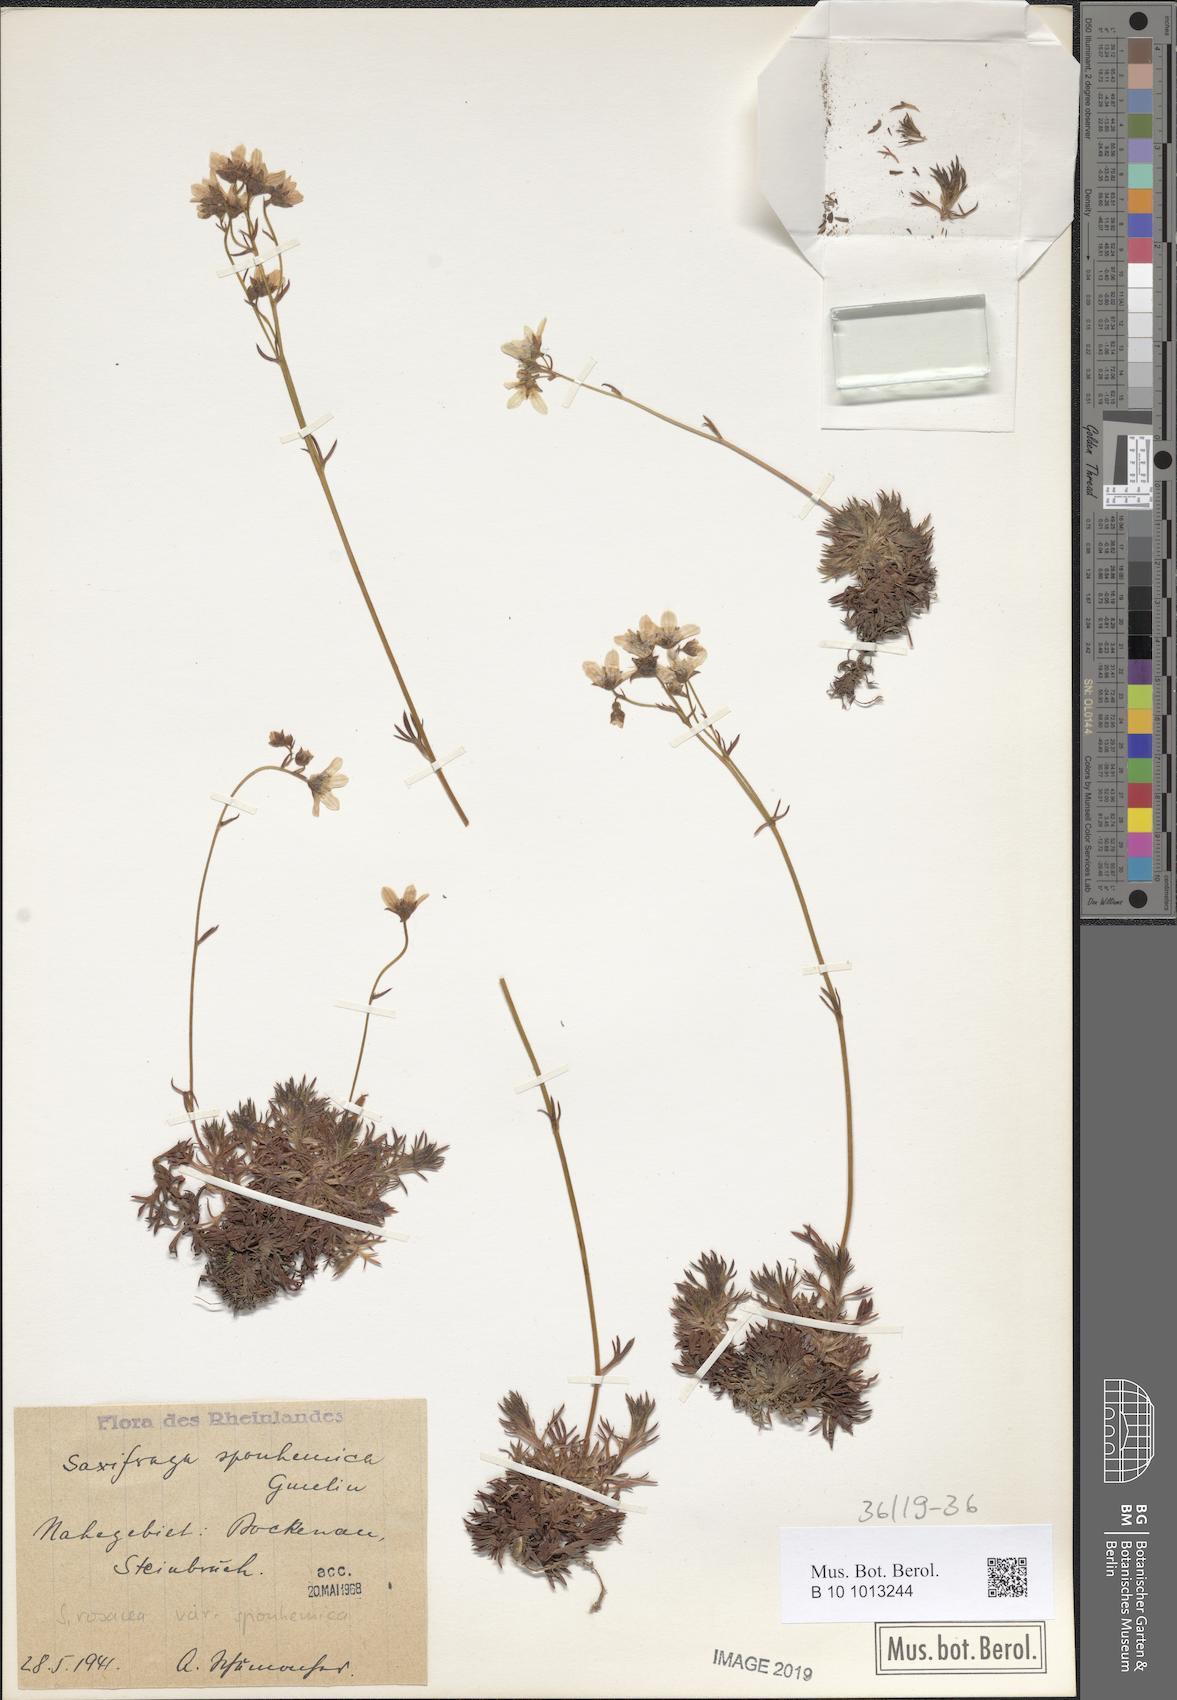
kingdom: Plantae
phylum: Tracheophyta
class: Magnoliopsida
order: Saxifragales
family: Saxifragaceae
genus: Saxifraga
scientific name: Saxifraga rosacea
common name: Irish saxifrage
